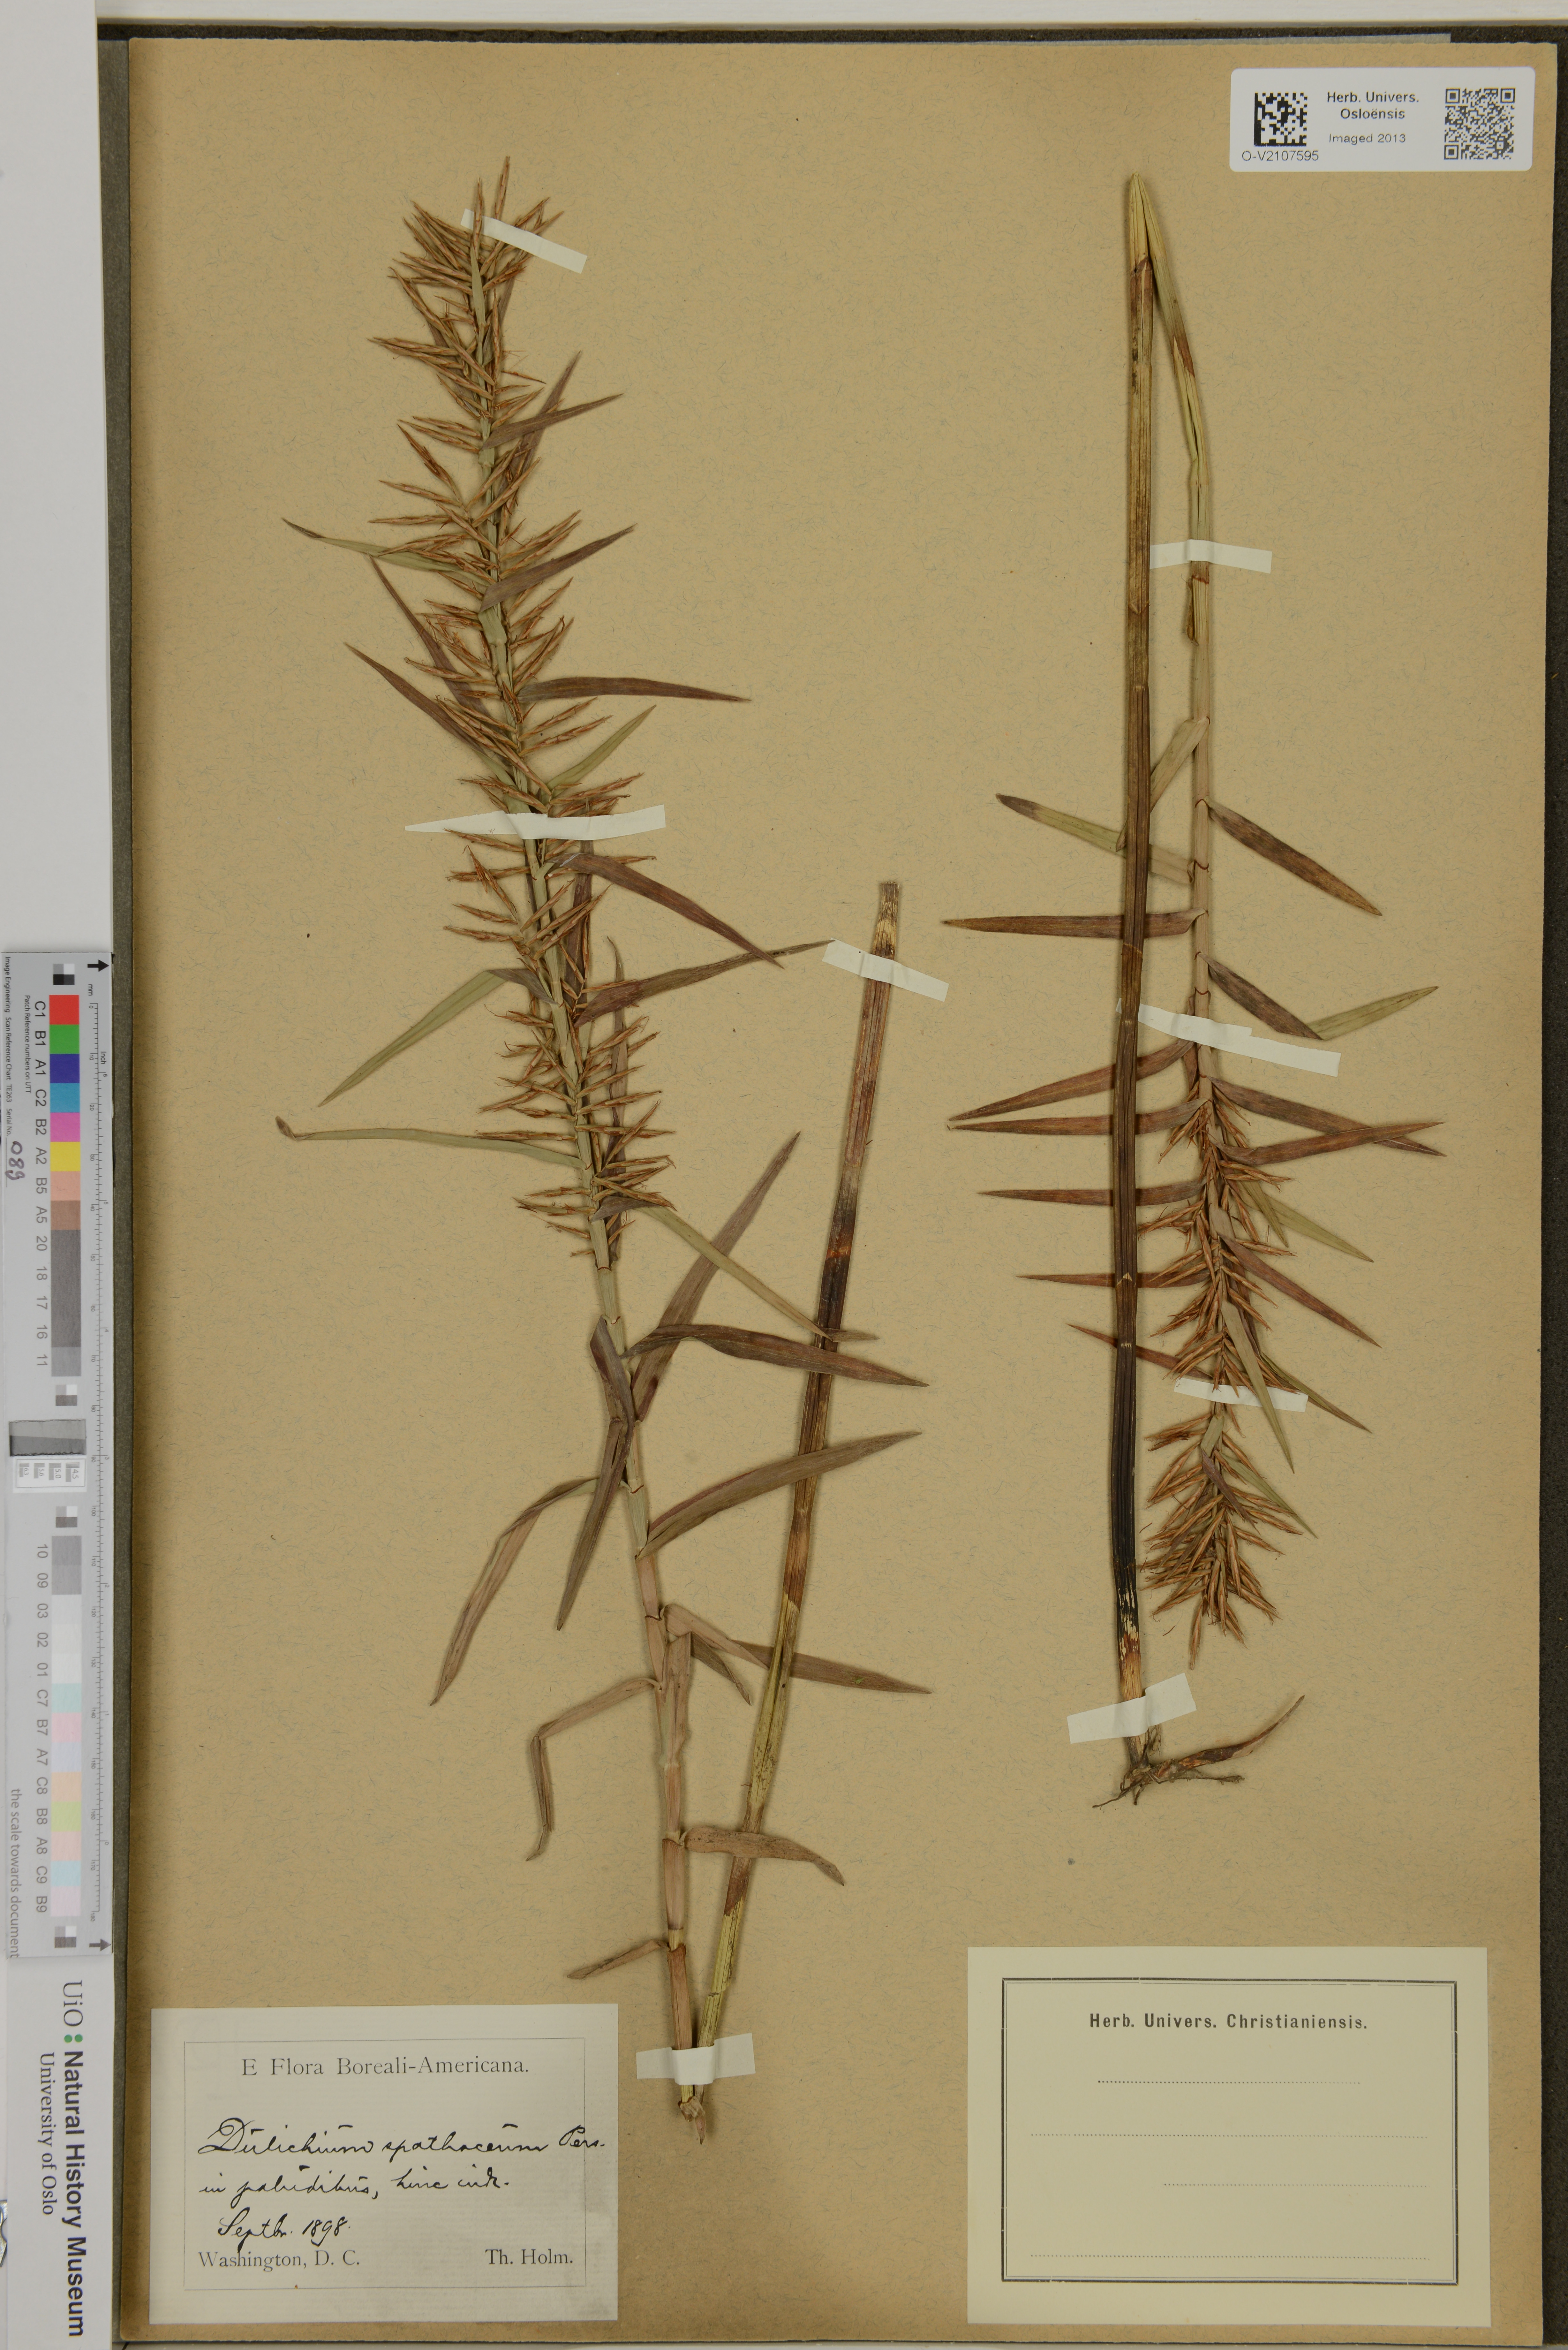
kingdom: Plantae
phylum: Tracheophyta
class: Liliopsida
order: Poales
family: Cyperaceae
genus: Dulichium
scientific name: Dulichium arundinaceum
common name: Three-way sedge
